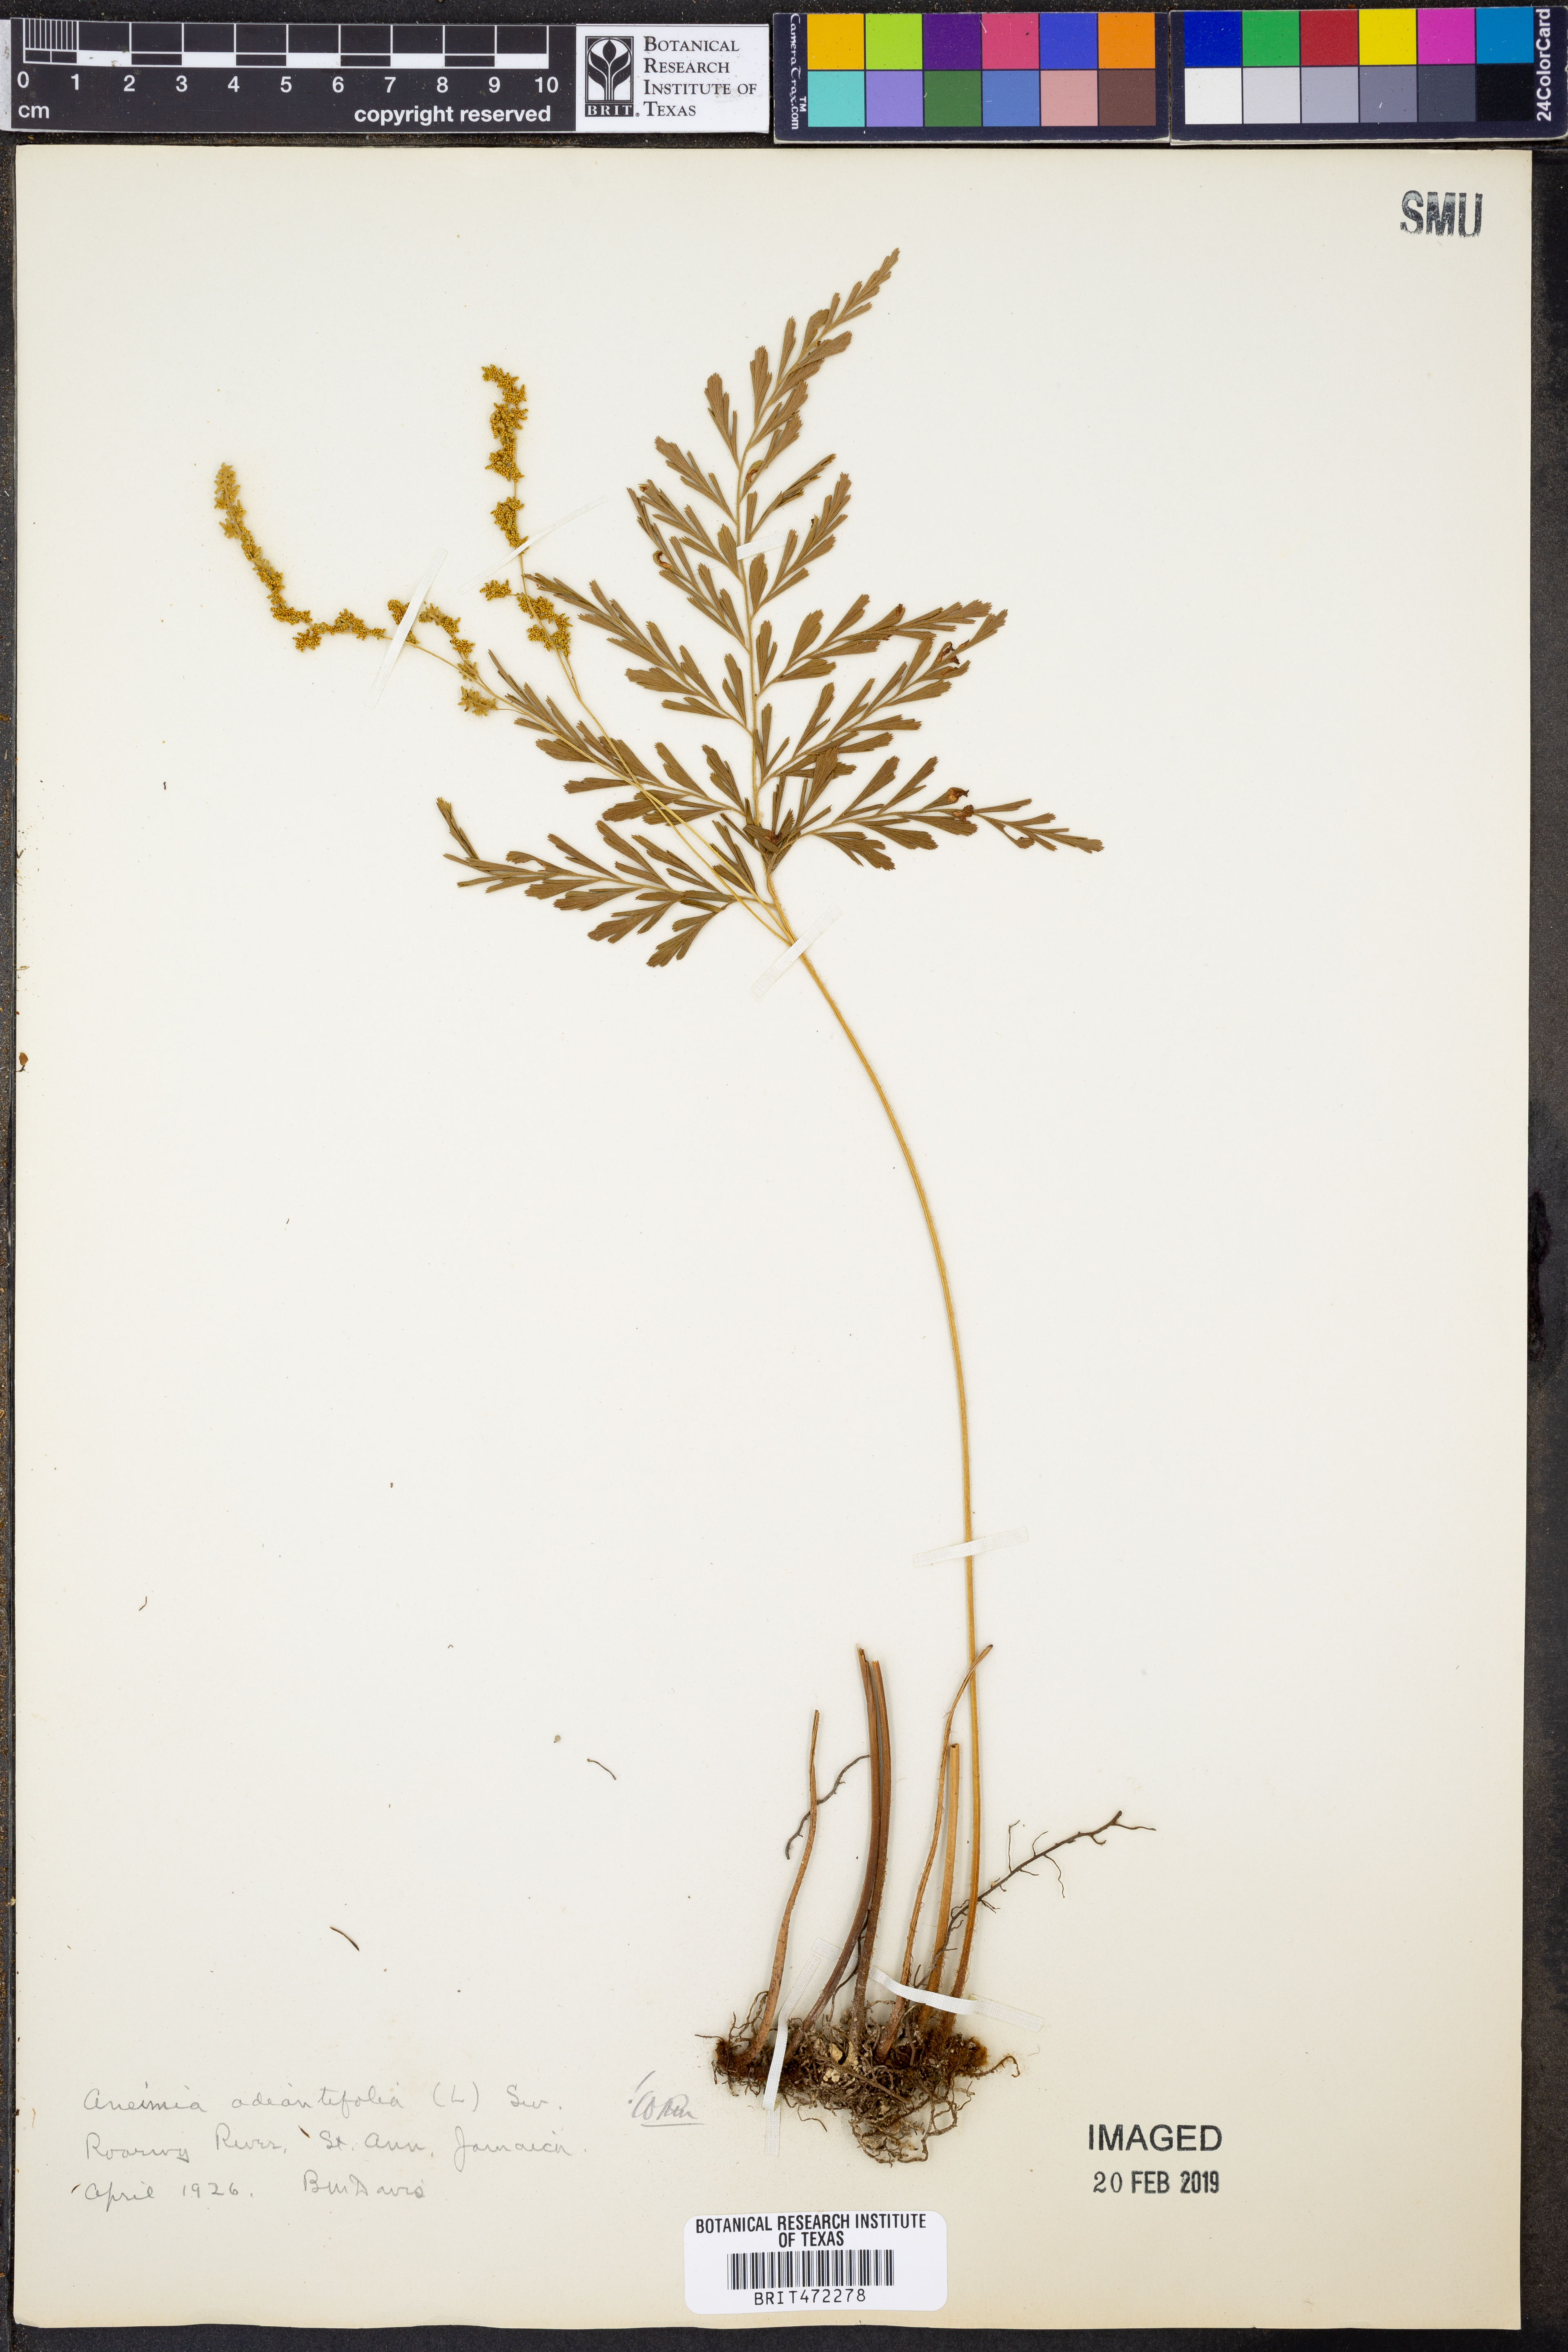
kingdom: Plantae
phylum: Tracheophyta
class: Polypodiopsida
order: Schizaeales
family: Anemiaceae
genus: Anemia
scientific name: Anemia adiantifolia
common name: Pine fern
